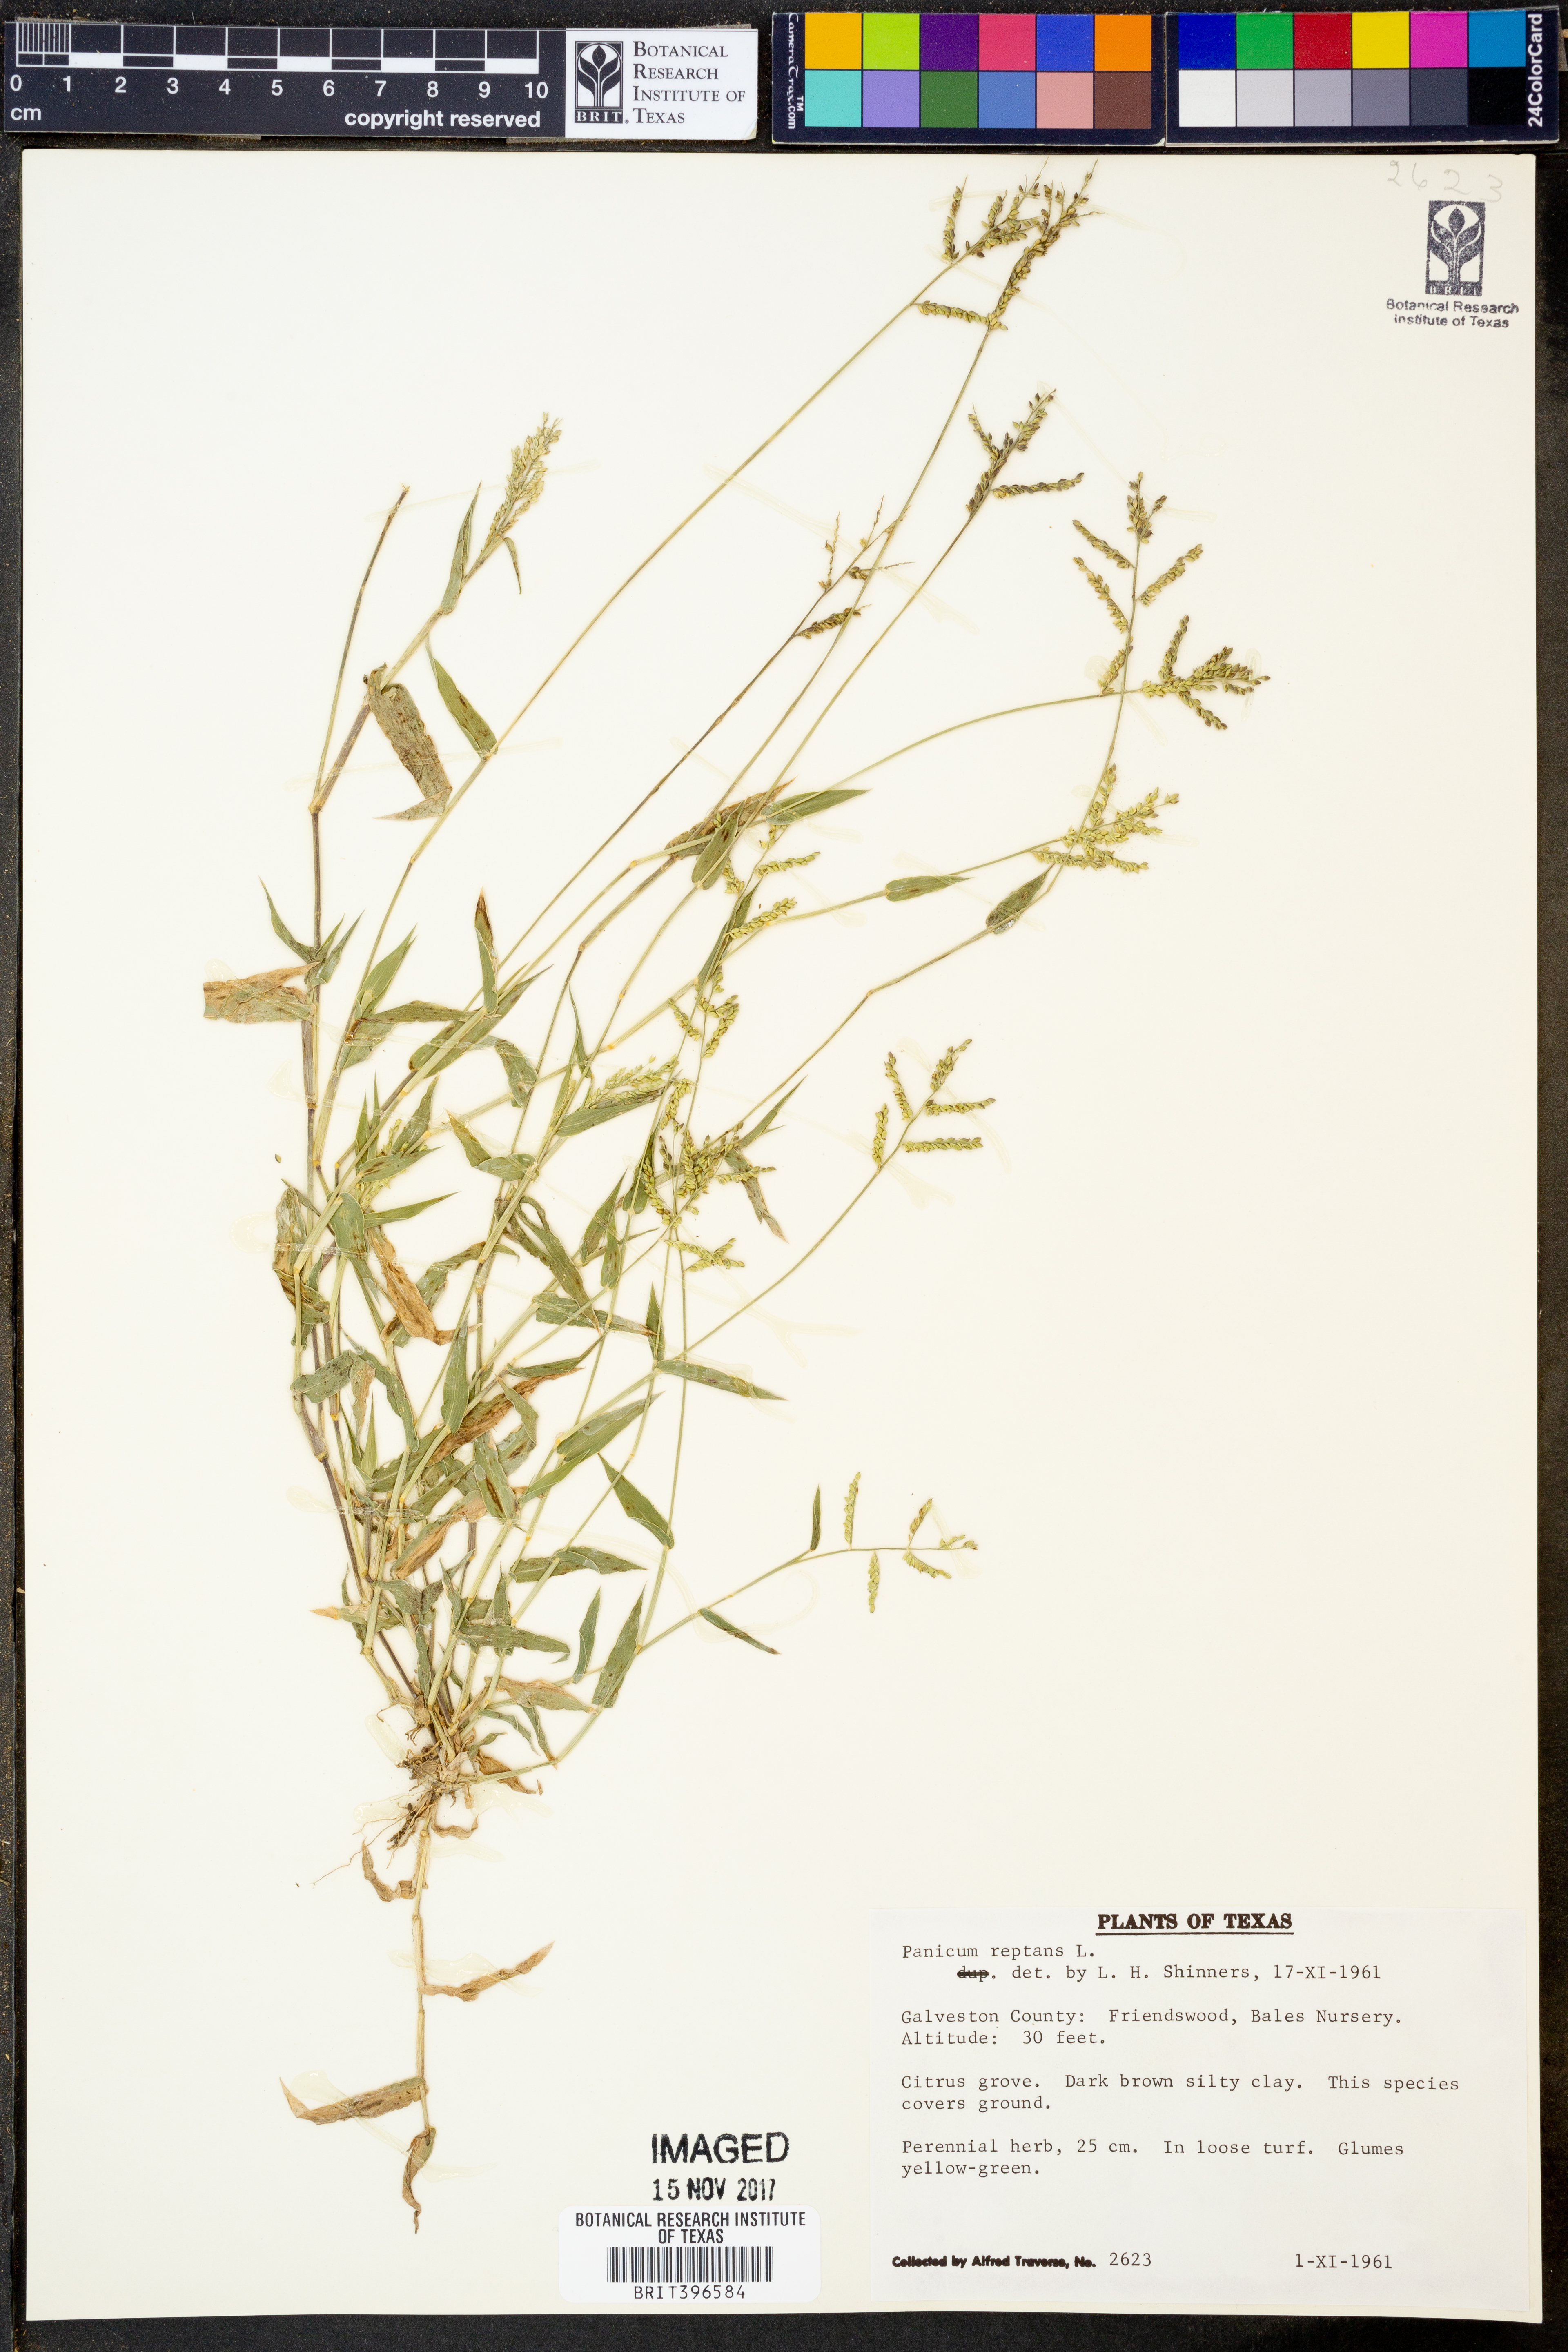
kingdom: Plantae
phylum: Tracheophyta
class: Liliopsida
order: Poales
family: Poaceae
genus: Panicum
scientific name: Panicum racemosum
